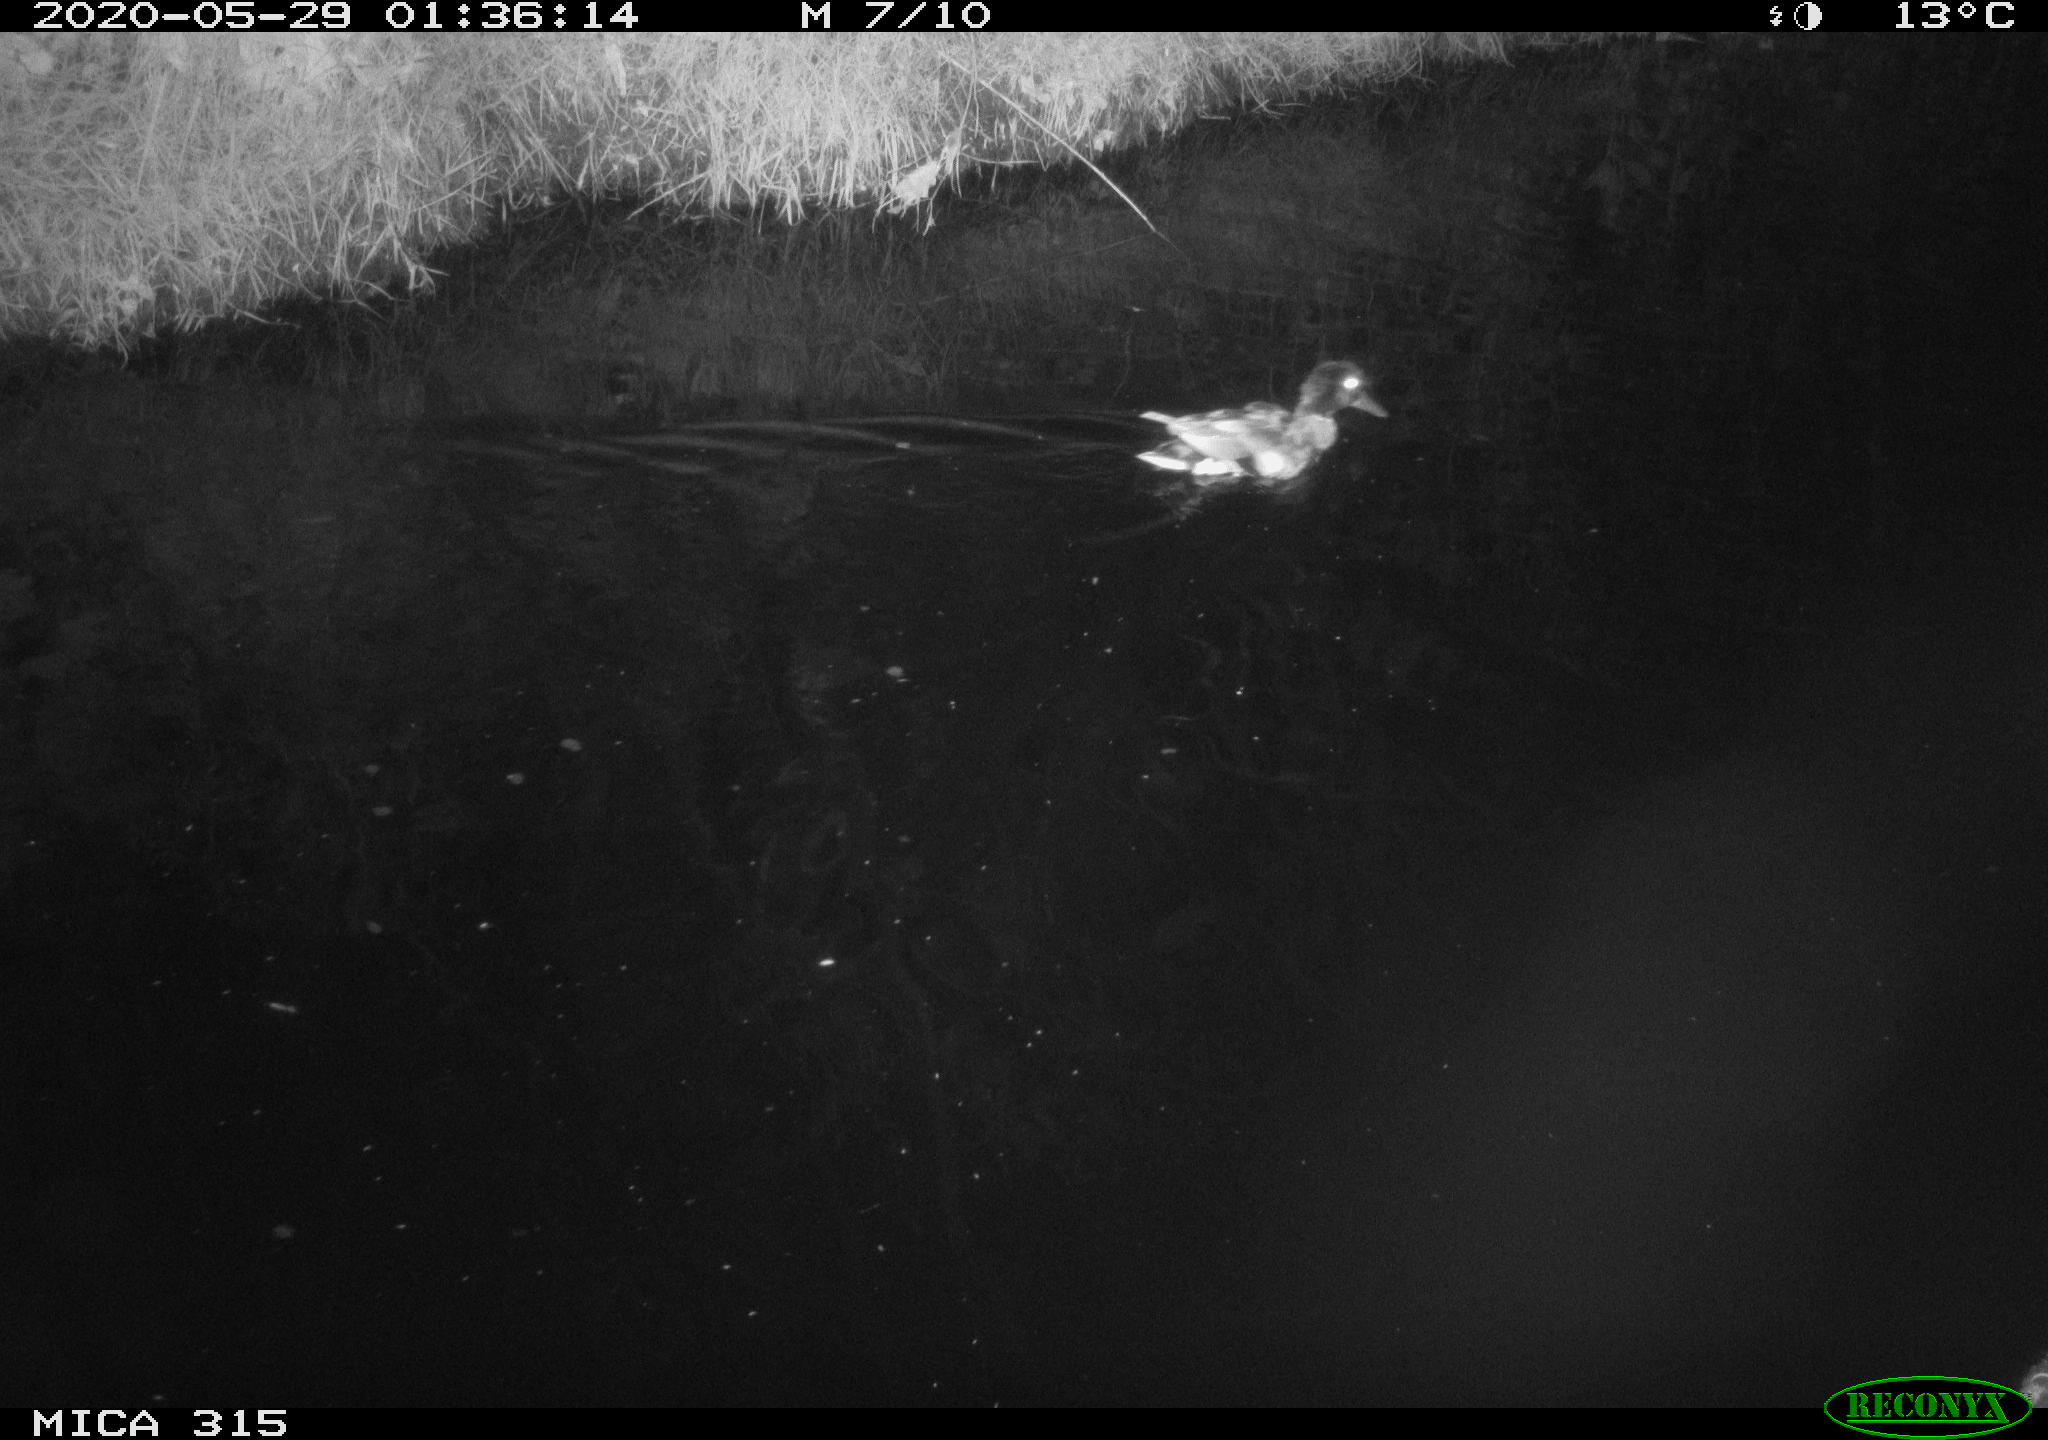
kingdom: Animalia
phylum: Chordata
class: Aves
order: Anseriformes
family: Anatidae
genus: Anas
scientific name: Anas platyrhynchos
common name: Mallard
